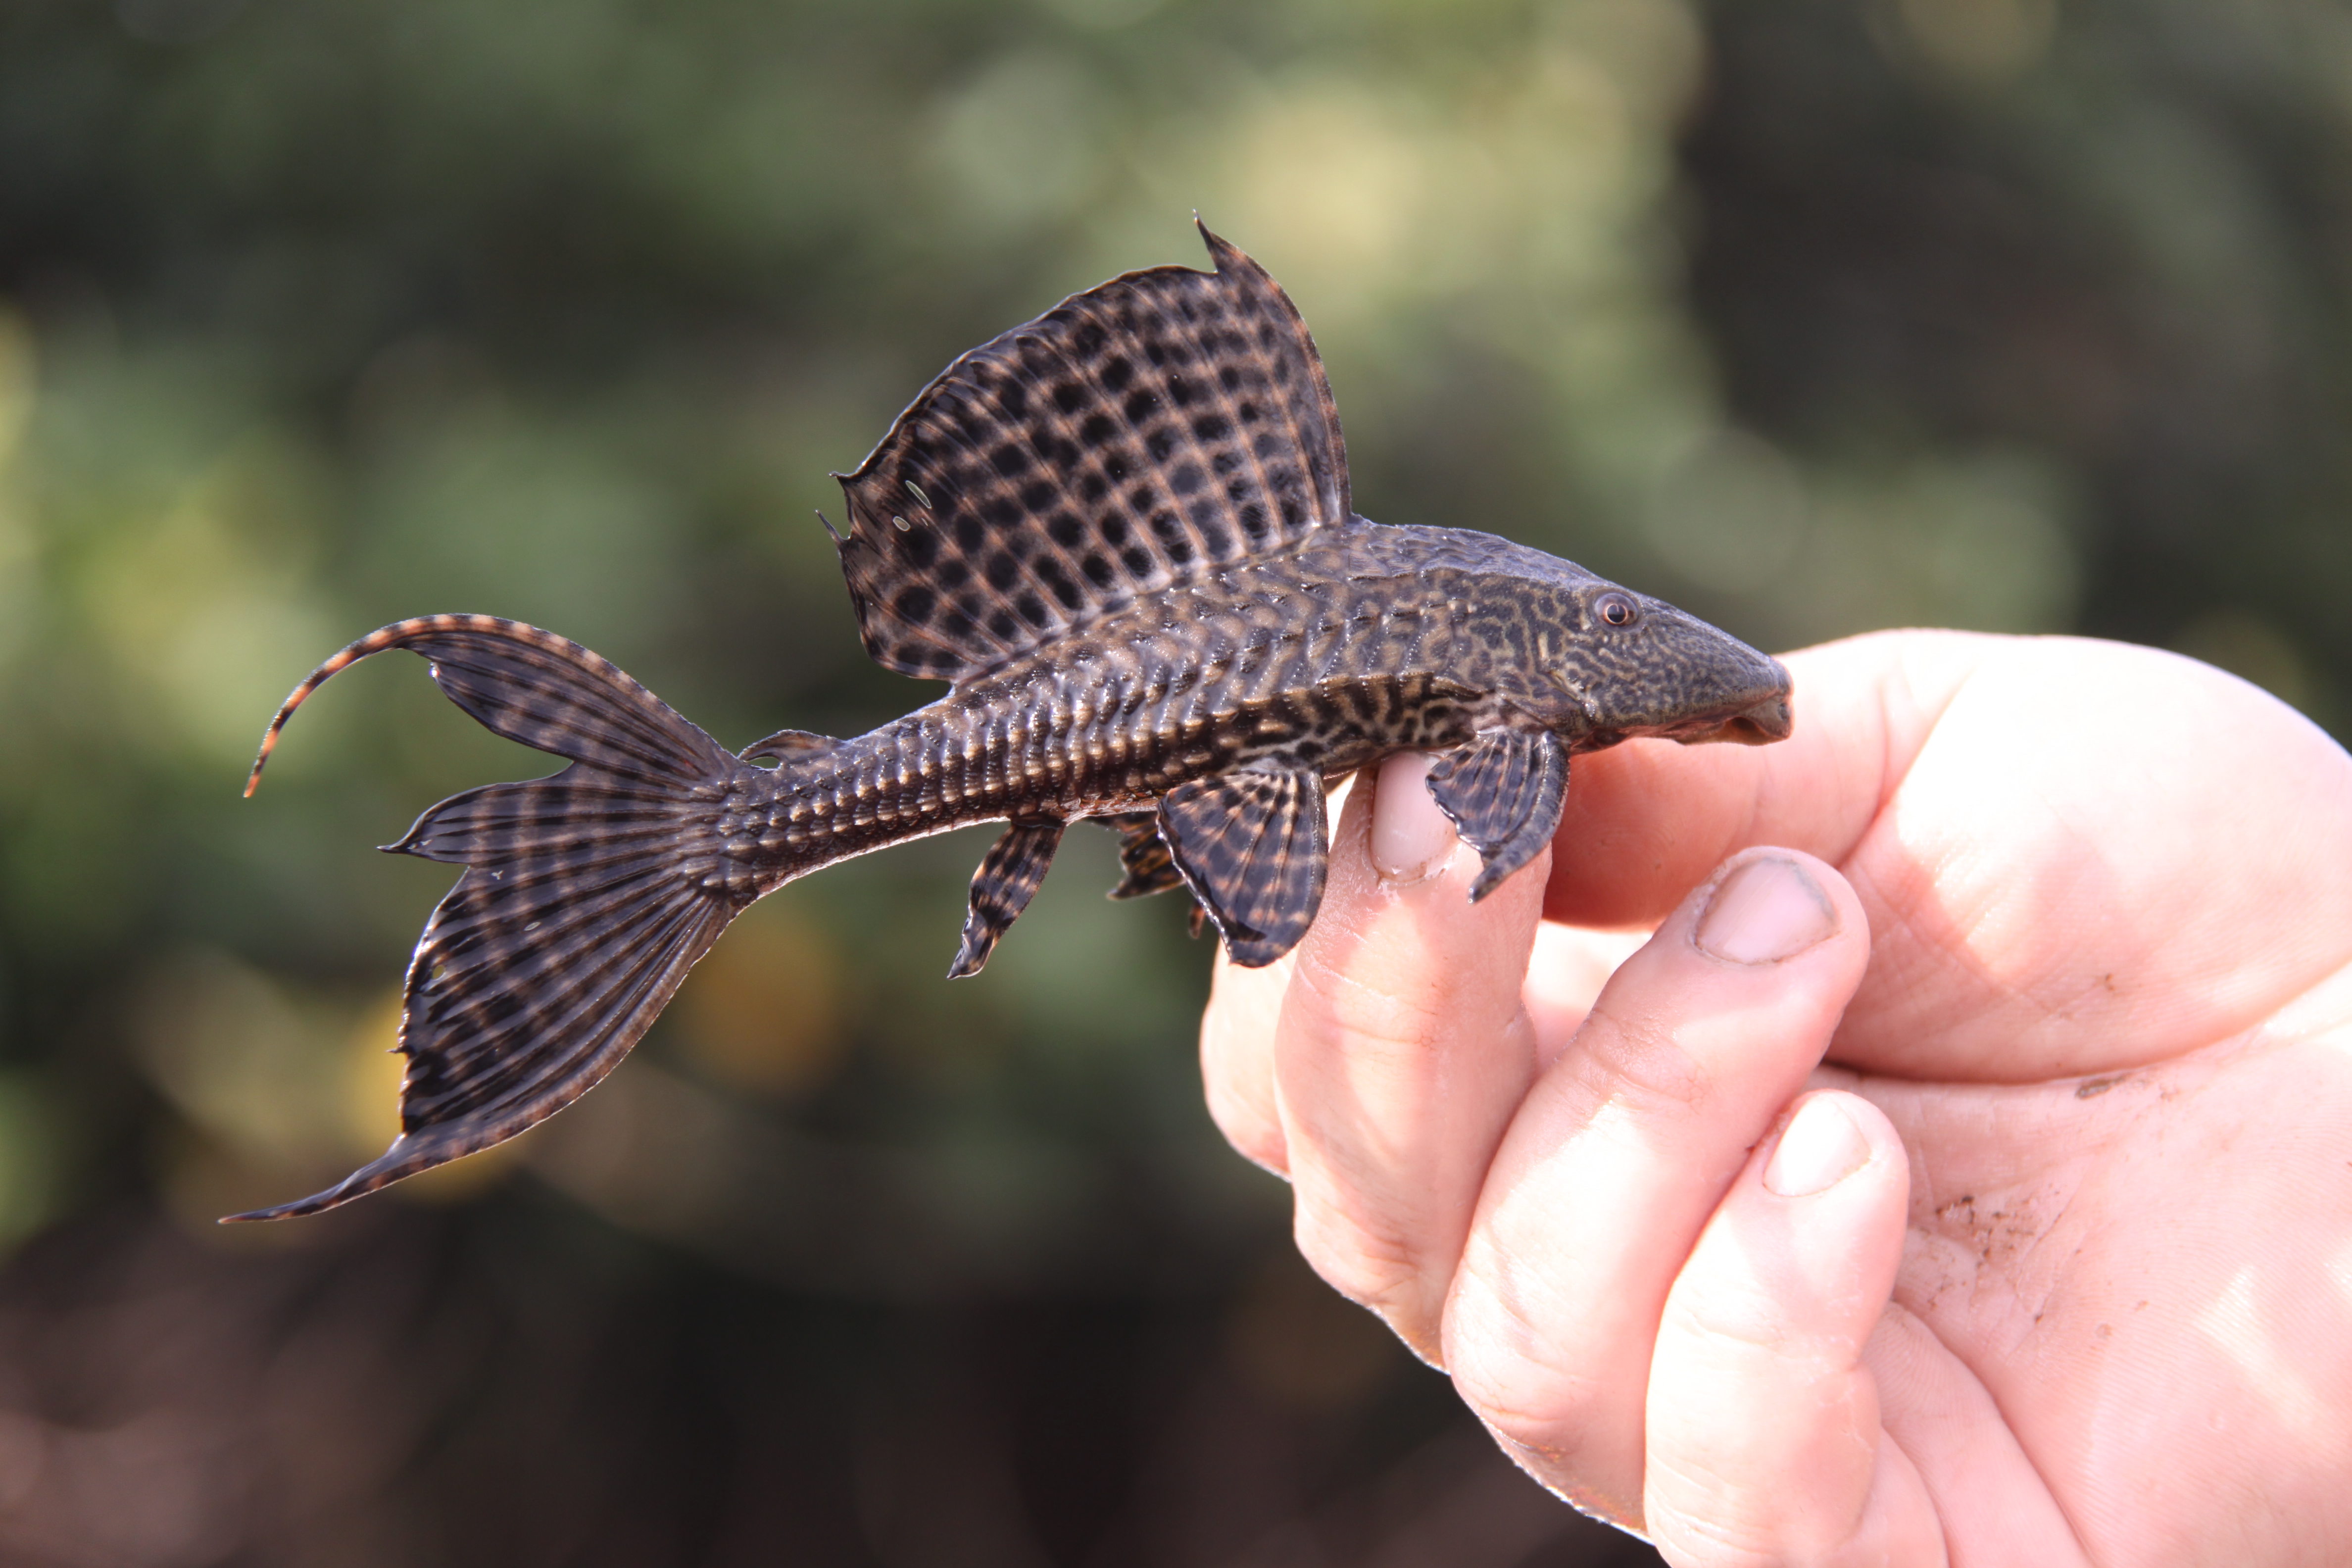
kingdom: Animalia
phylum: Chordata
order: Siluriformes
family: Loricariidae
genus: Pterygoplichthys
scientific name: Pterygoplichthys disjunctivus
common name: Vermiculated sailfin catfish
